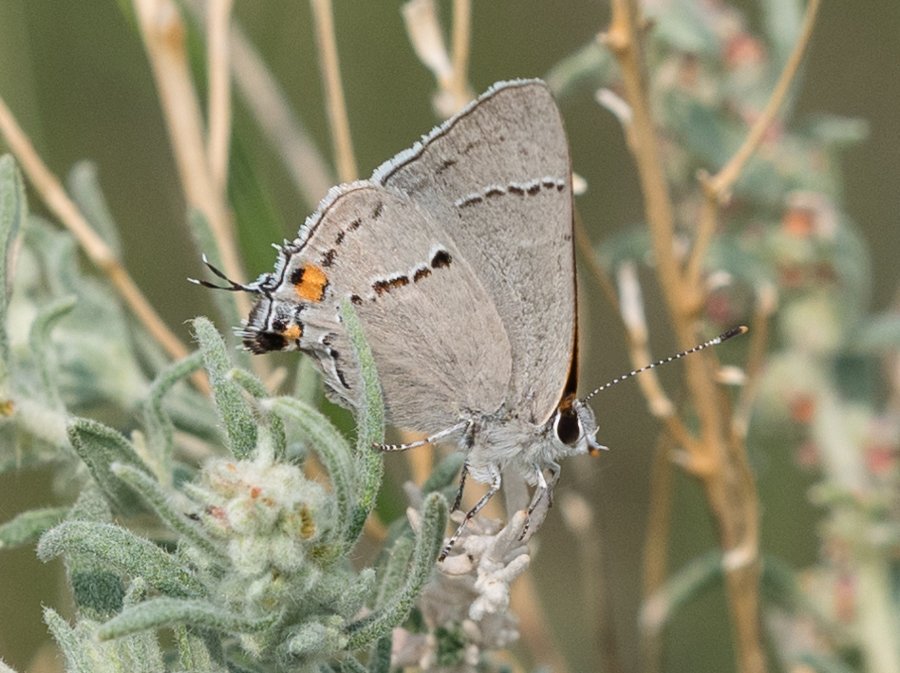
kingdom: Animalia
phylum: Arthropoda
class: Insecta
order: Lepidoptera
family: Lycaenidae
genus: Strymon
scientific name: Strymon melinus
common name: Gray Hairstreak
